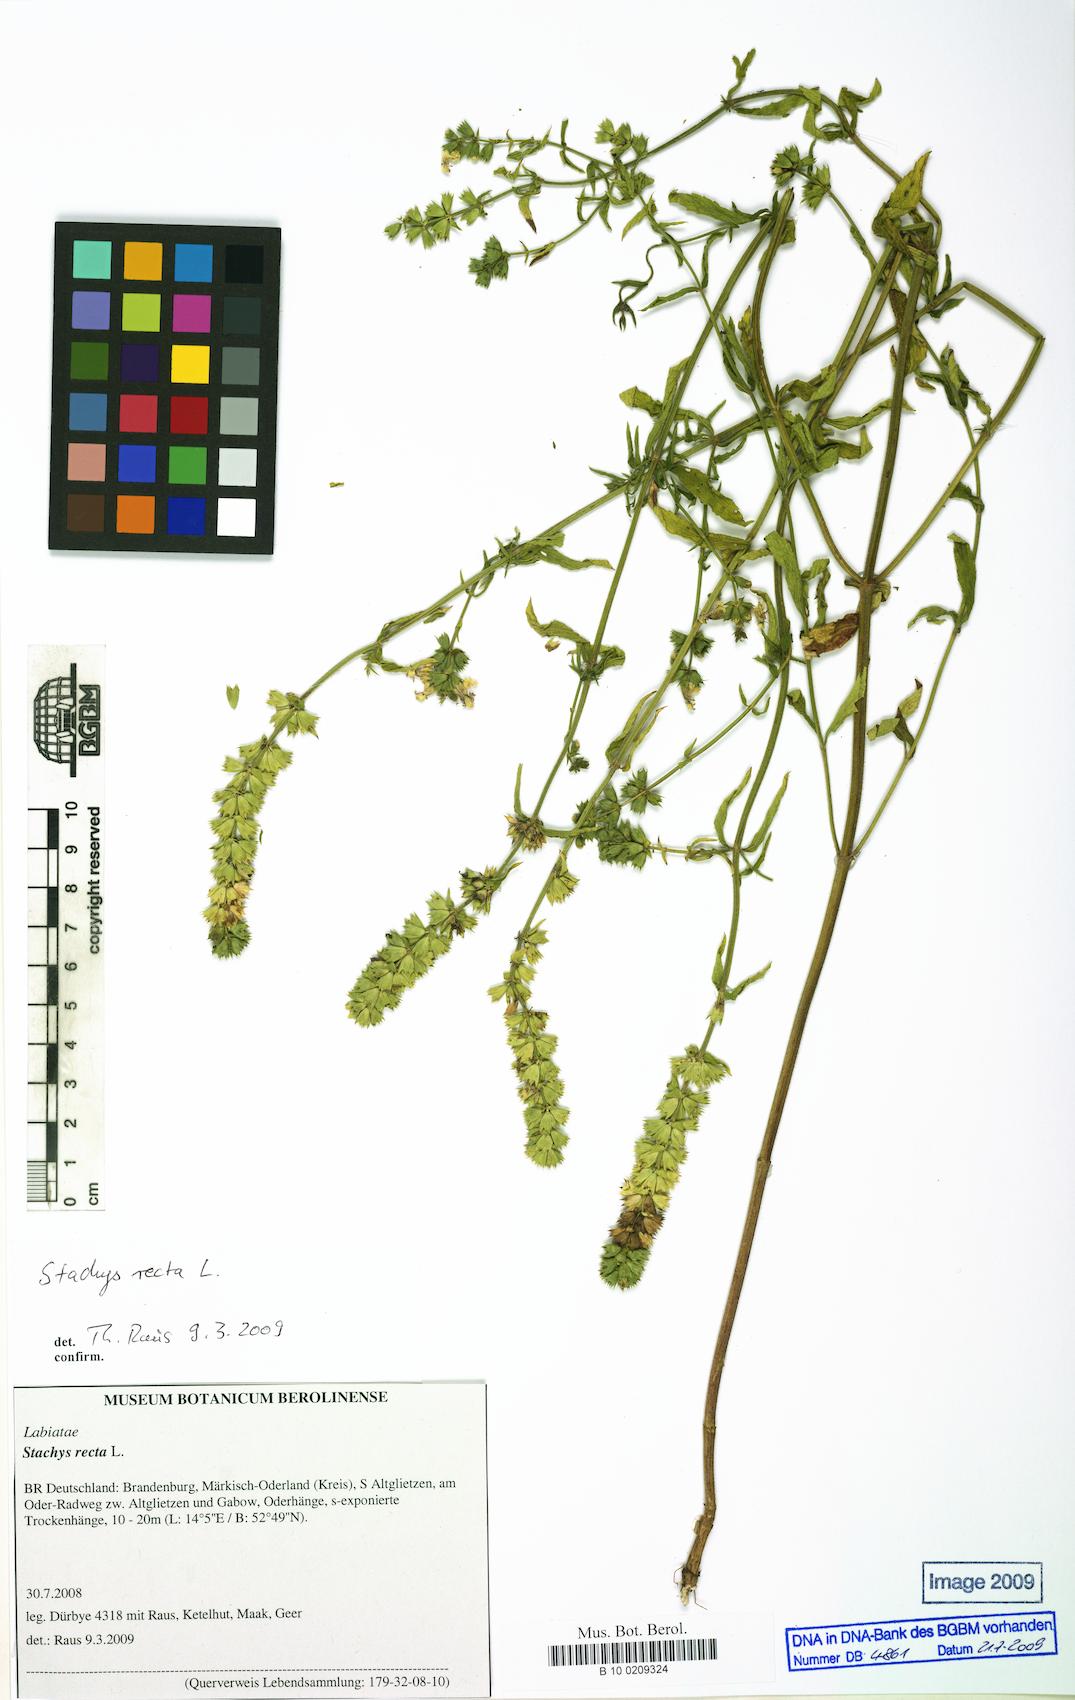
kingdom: Plantae
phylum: Tracheophyta
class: Magnoliopsida
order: Lamiales
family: Lamiaceae
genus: Stachys
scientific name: Stachys recta
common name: Perennial yellow-woundwort
